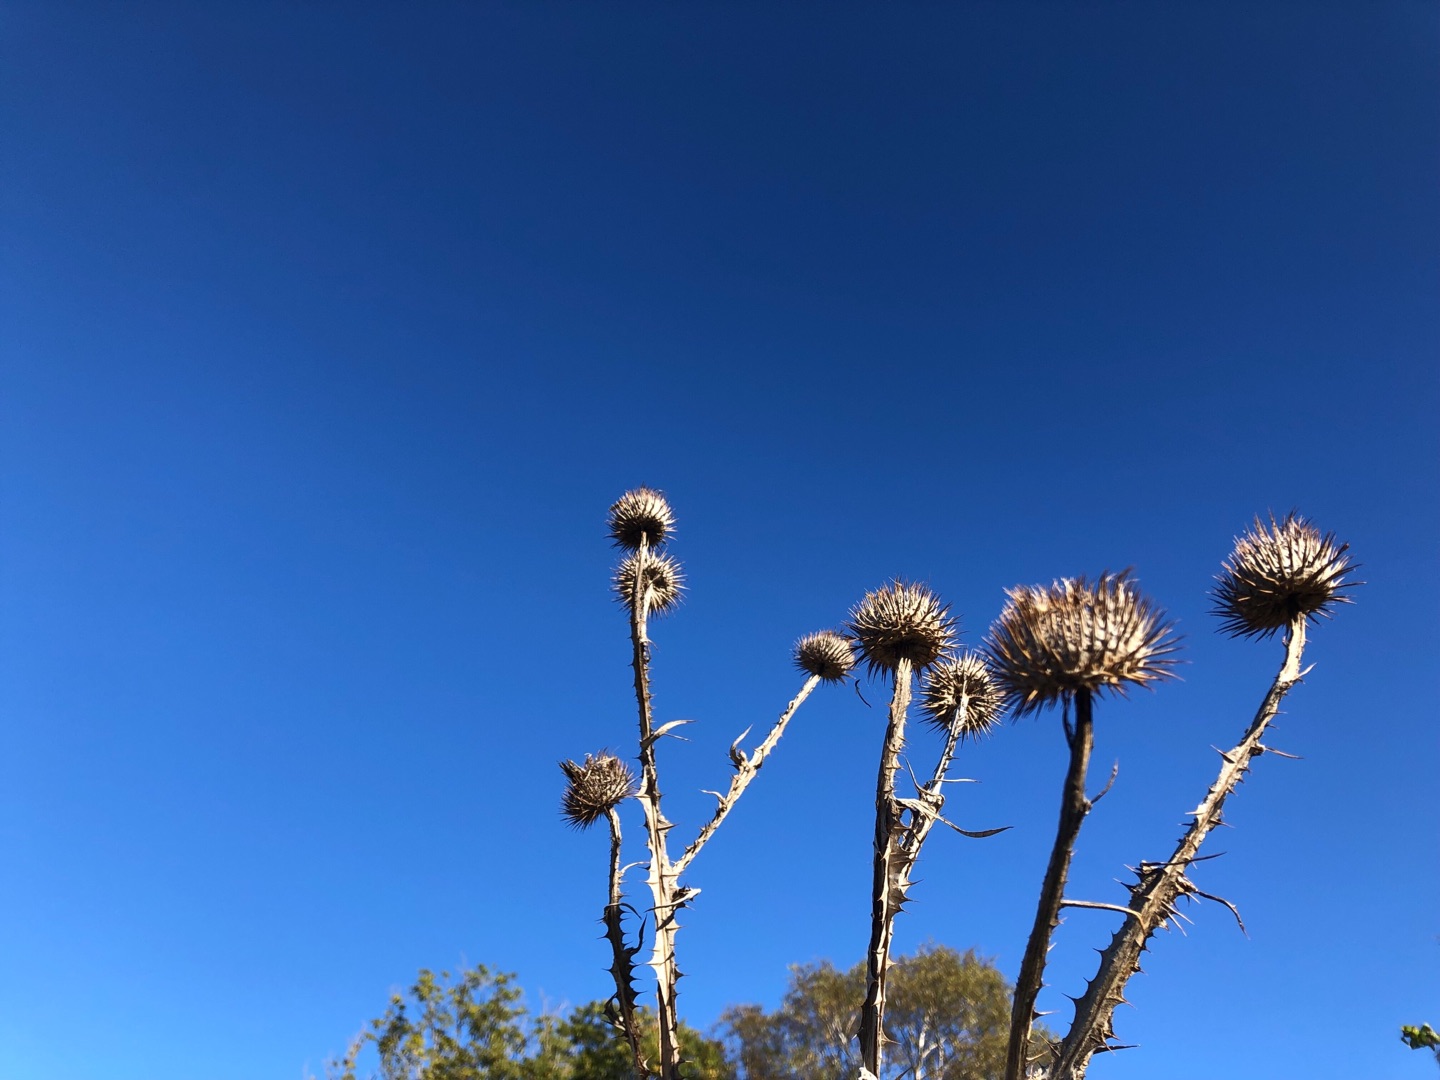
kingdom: Plantae
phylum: Tracheophyta
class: Magnoliopsida
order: Asterales
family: Asteraceae
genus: Onopordum
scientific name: Onopordum acanthium
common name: Æselfoder
